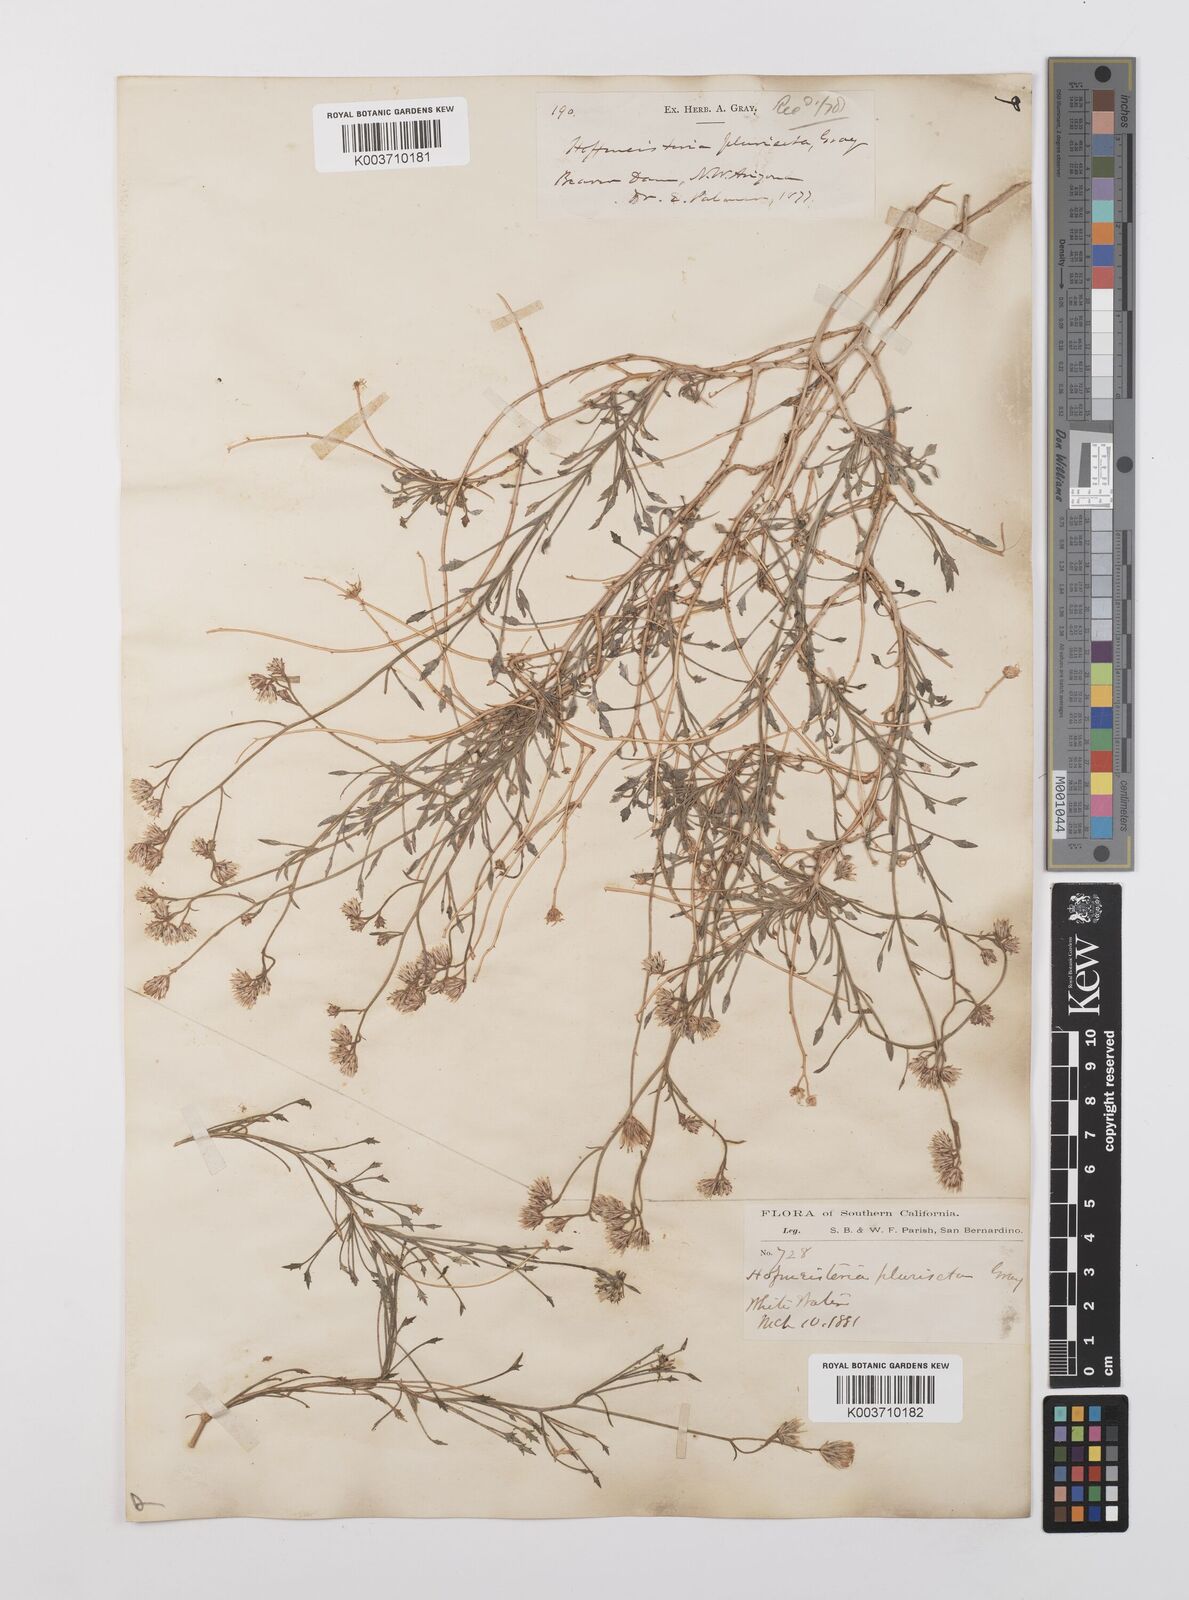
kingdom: Plantae
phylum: Tracheophyta
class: Magnoliopsida
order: Asterales
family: Asteraceae
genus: Pleurocoronis
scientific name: Pleurocoronis pluriseta
